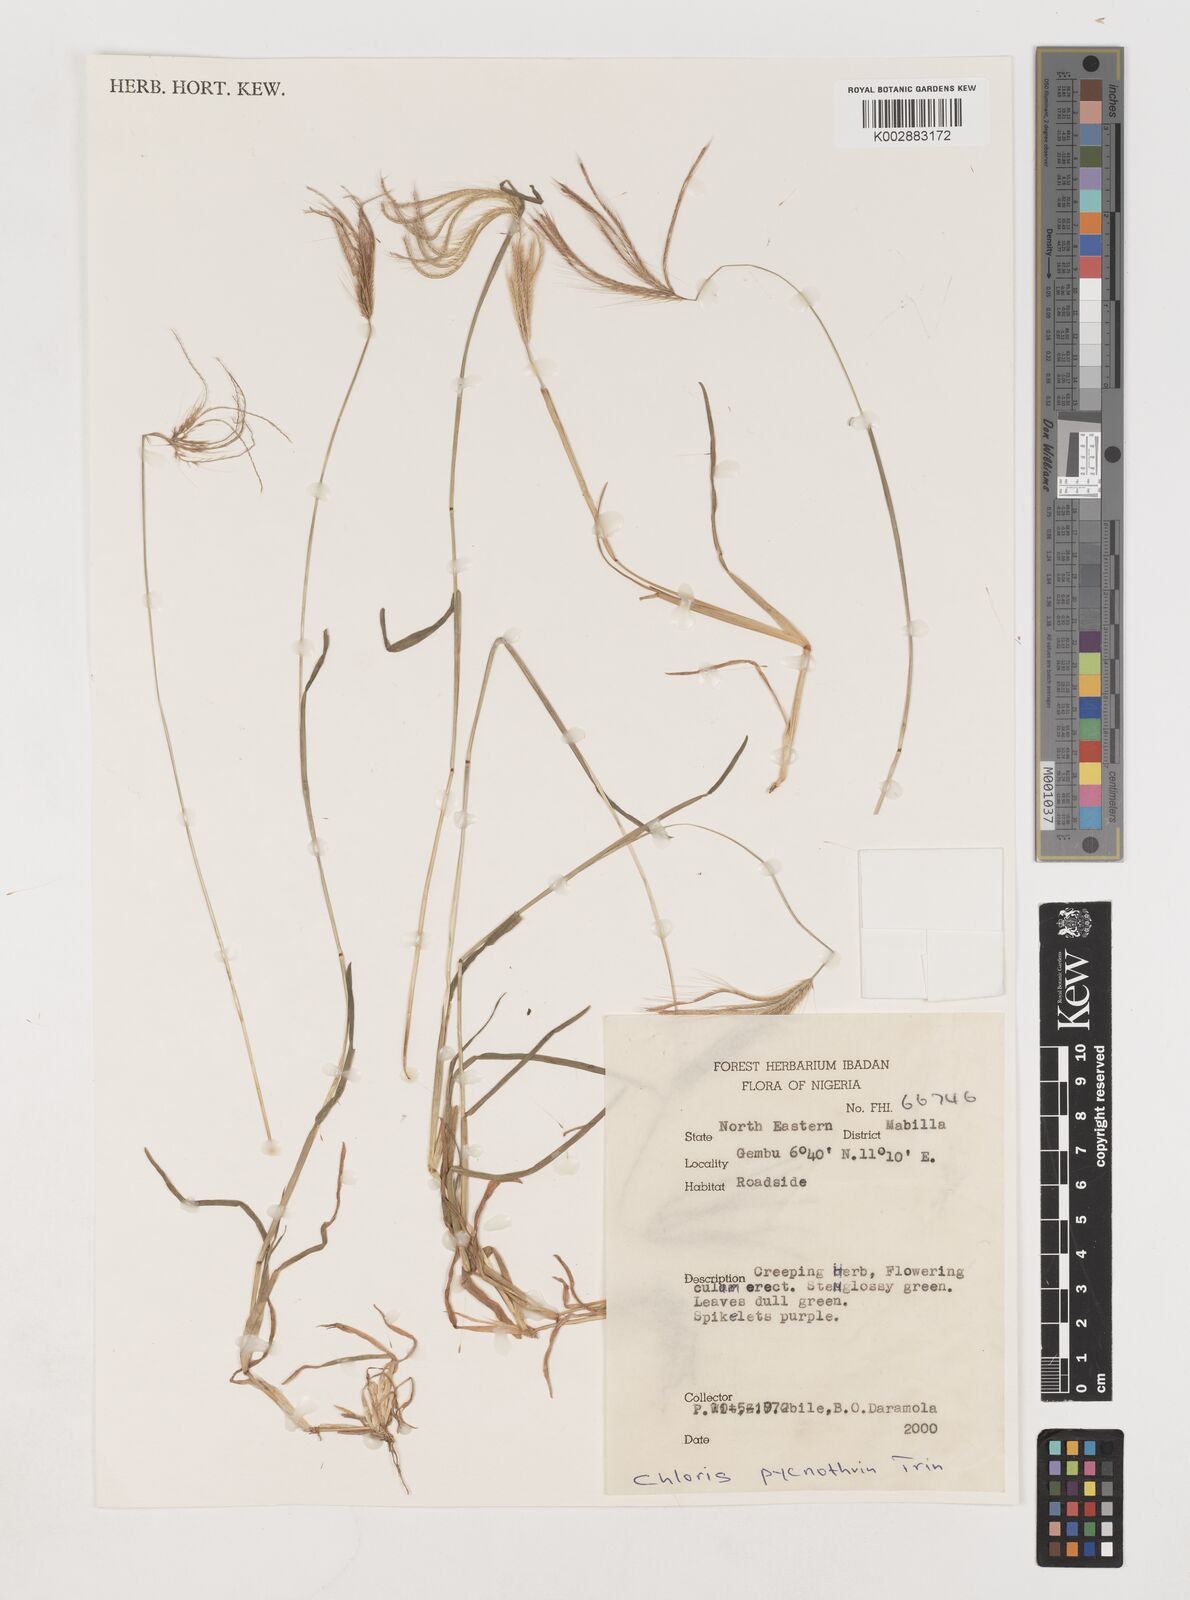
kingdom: Plantae
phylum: Tracheophyta
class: Liliopsida
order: Poales
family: Poaceae
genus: Chloris
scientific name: Chloris pycnothrix
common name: Spiderweb chloris
